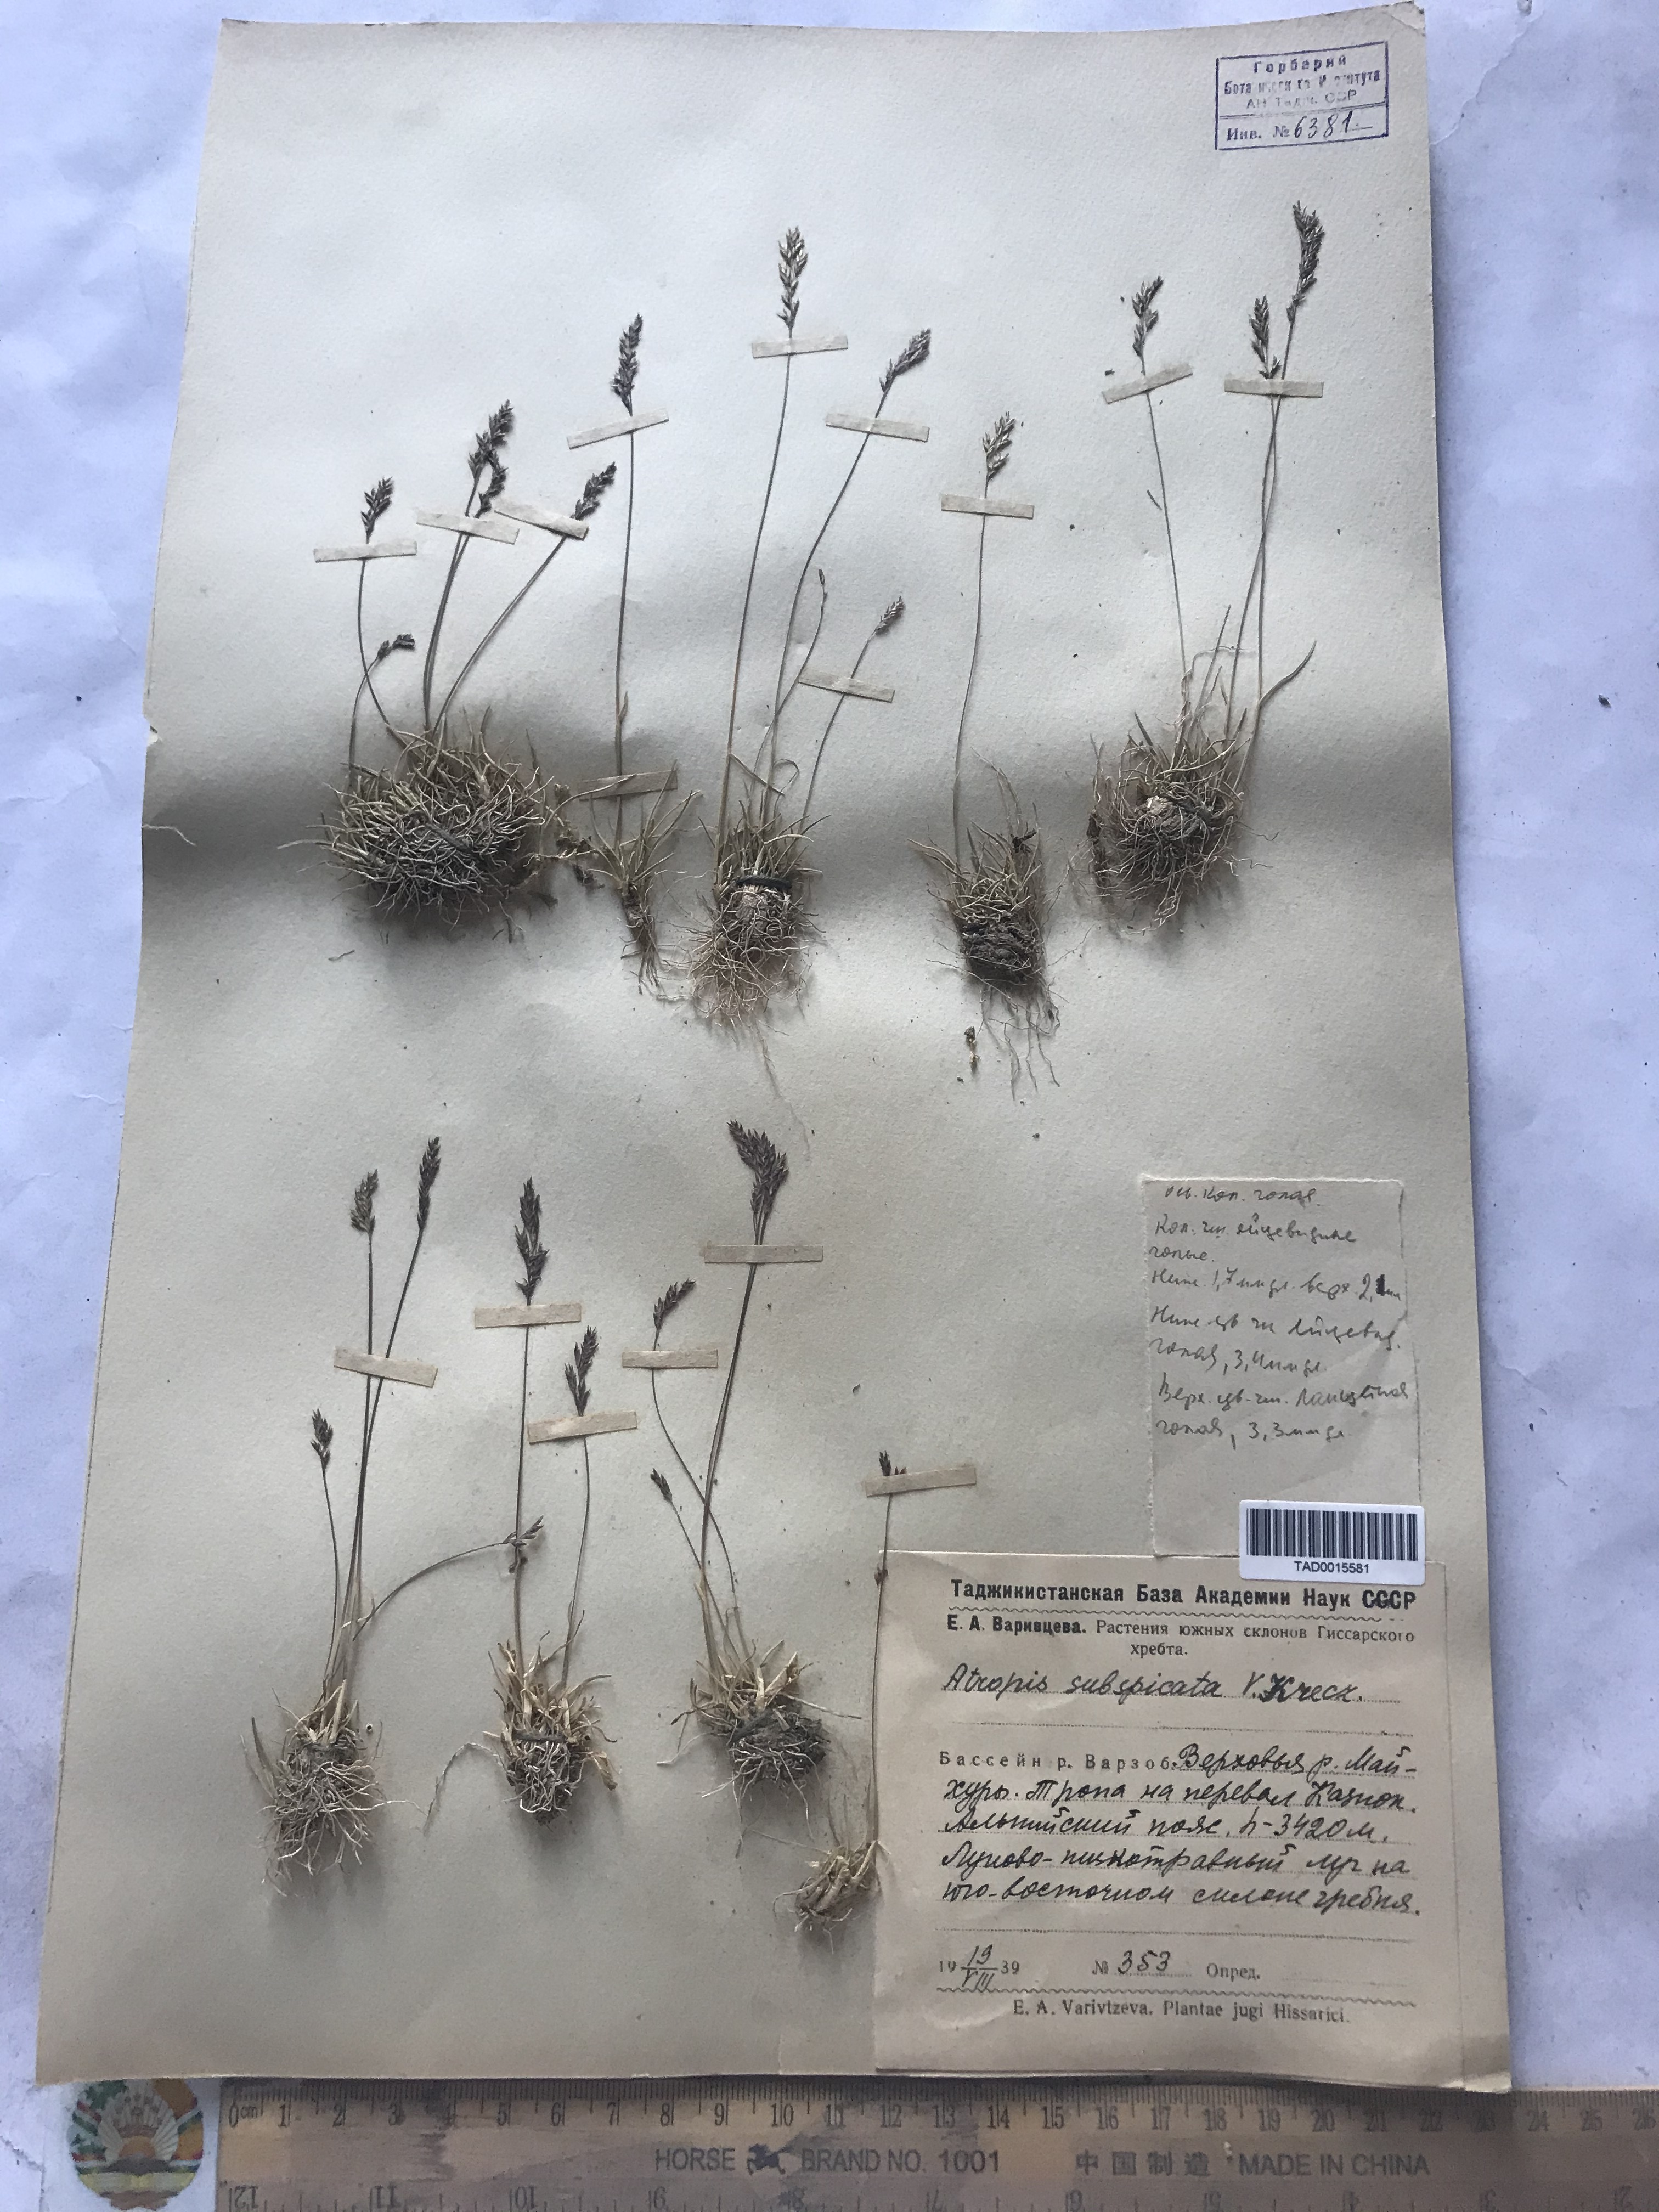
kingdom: Plantae
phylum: Tracheophyta
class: Liliopsida
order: Poales
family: Poaceae
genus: Puccinellia
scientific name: Puccinellia subspicata
